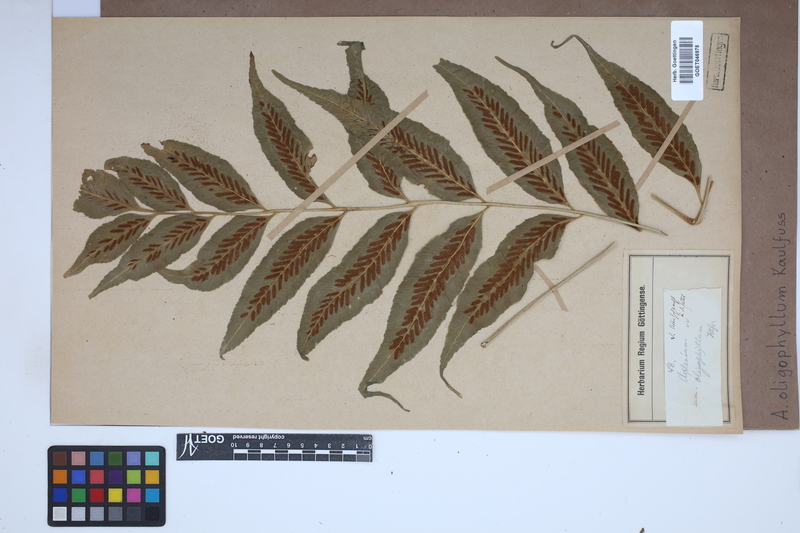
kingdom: Plantae
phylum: Tracheophyta
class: Polypodiopsida
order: Polypodiales
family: Aspleniaceae
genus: Asplenium
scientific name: Asplenium oligophyllum
